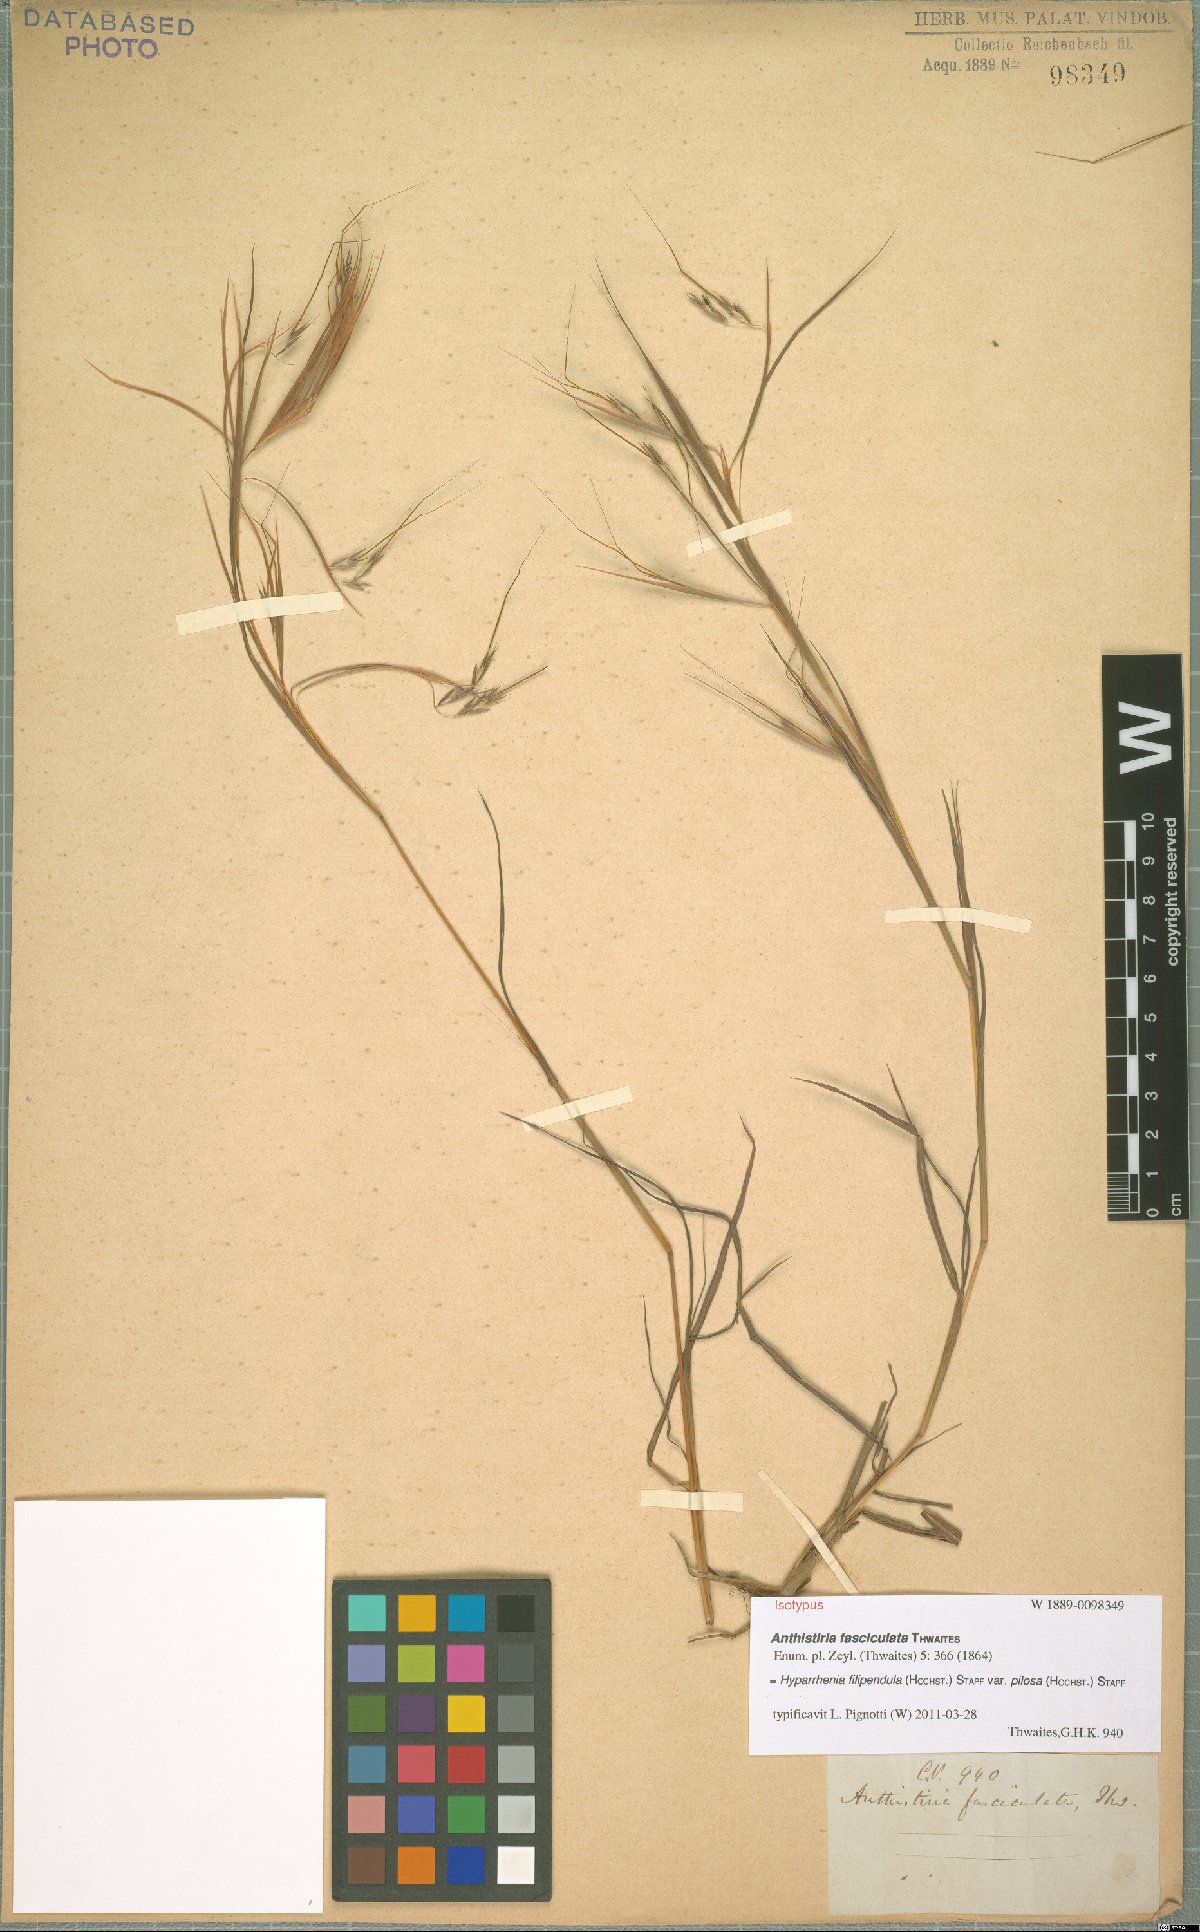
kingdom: Plantae
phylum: Tracheophyta
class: Liliopsida
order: Poales
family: Poaceae
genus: Hyparrhenia
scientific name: Hyparrhenia filipendula
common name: Tambookie grass
